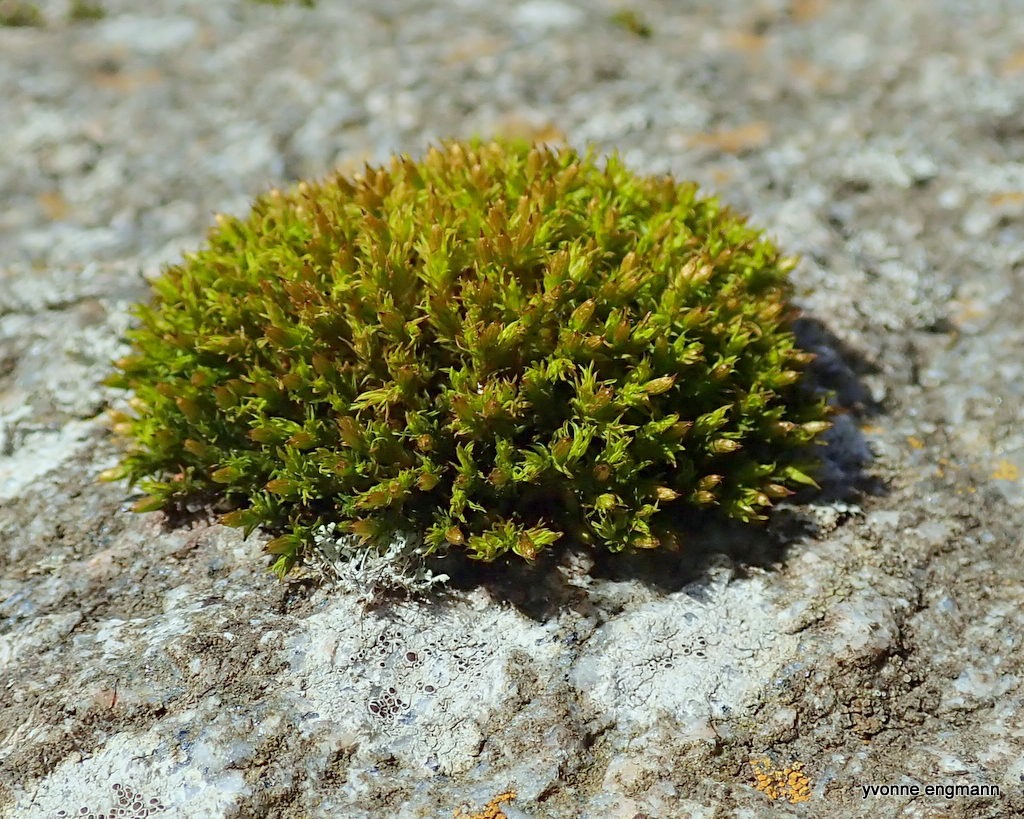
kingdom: Plantae
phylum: Bryophyta
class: Bryopsida
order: Orthotrichales
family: Orthotrichaceae
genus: Orthotrichum
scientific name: Orthotrichum
